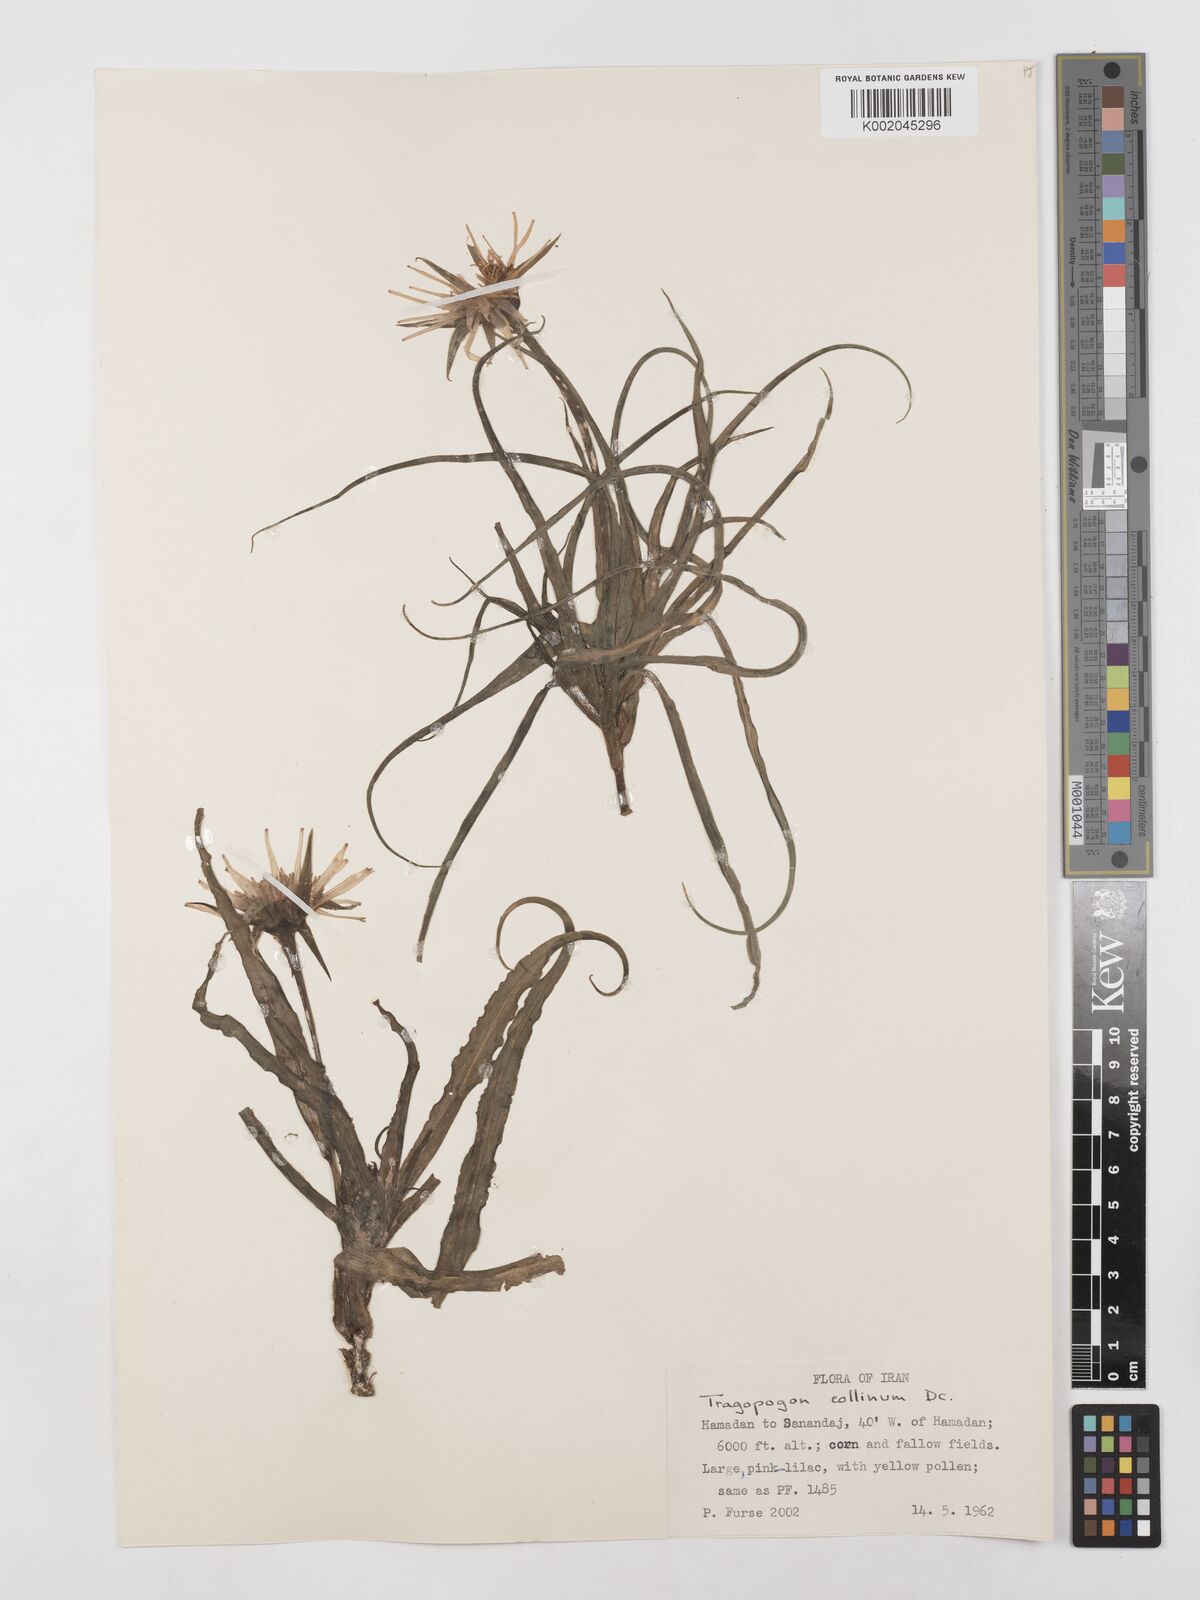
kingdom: Plantae
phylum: Tracheophyta
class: Magnoliopsida
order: Asterales
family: Asteraceae
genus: Tragopogon
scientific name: Tragopogon collinus
